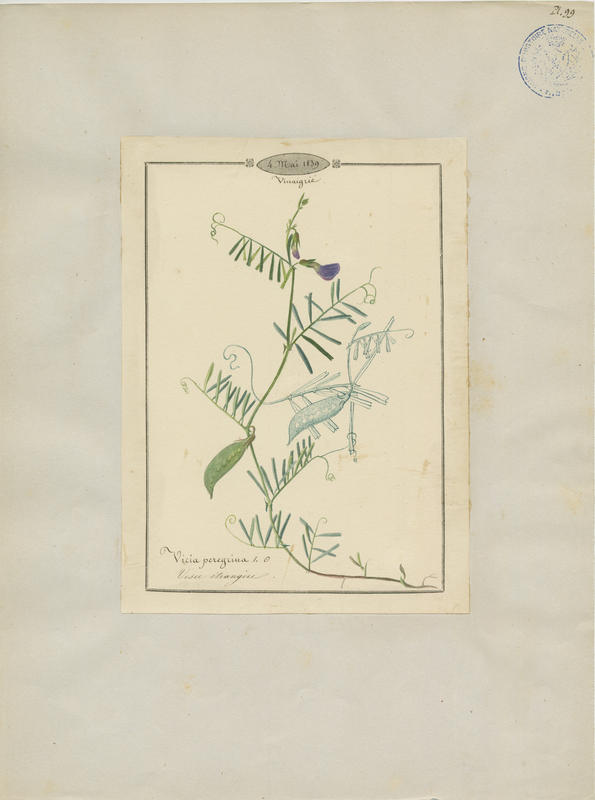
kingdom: Plantae
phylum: Tracheophyta
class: Magnoliopsida
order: Fabales
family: Fabaceae
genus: Vicia
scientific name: Vicia peregrina
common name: Broad-pod vetch
